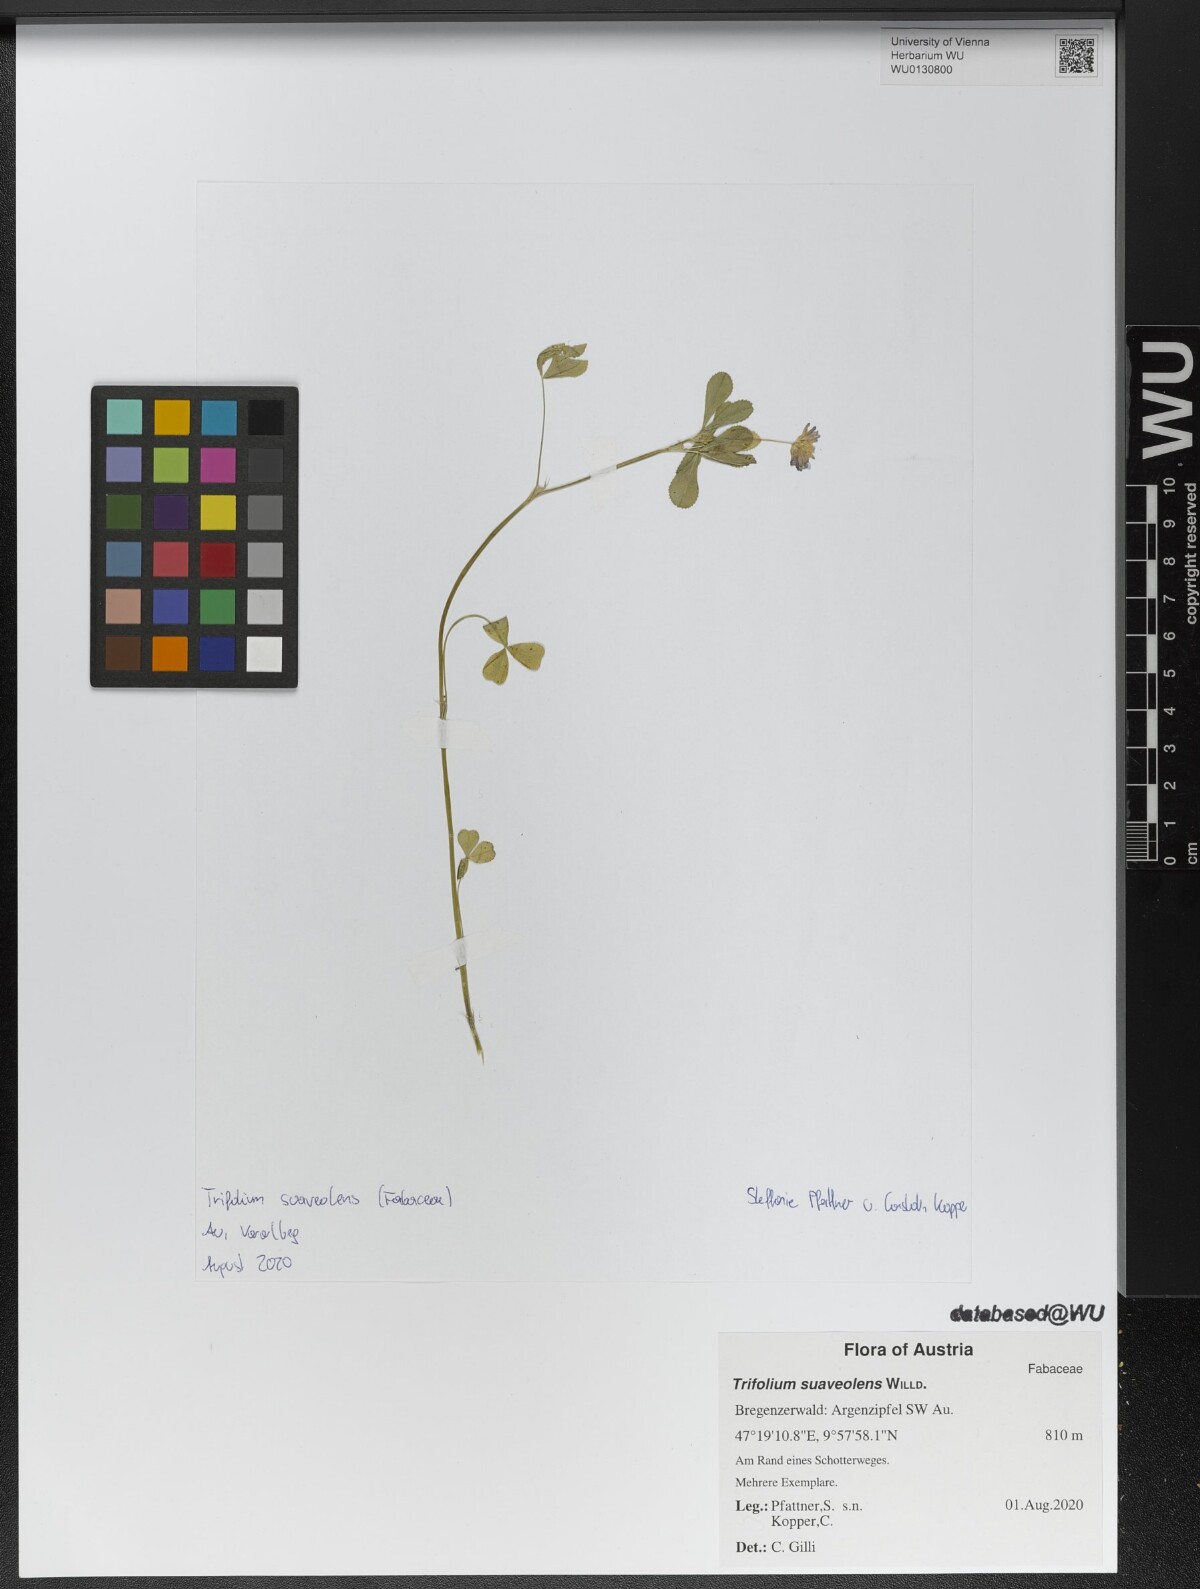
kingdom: Plantae
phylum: Tracheophyta
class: Magnoliopsida
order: Fabales
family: Fabaceae
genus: Trifolium
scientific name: Trifolium resupinatum
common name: Reversed clover
